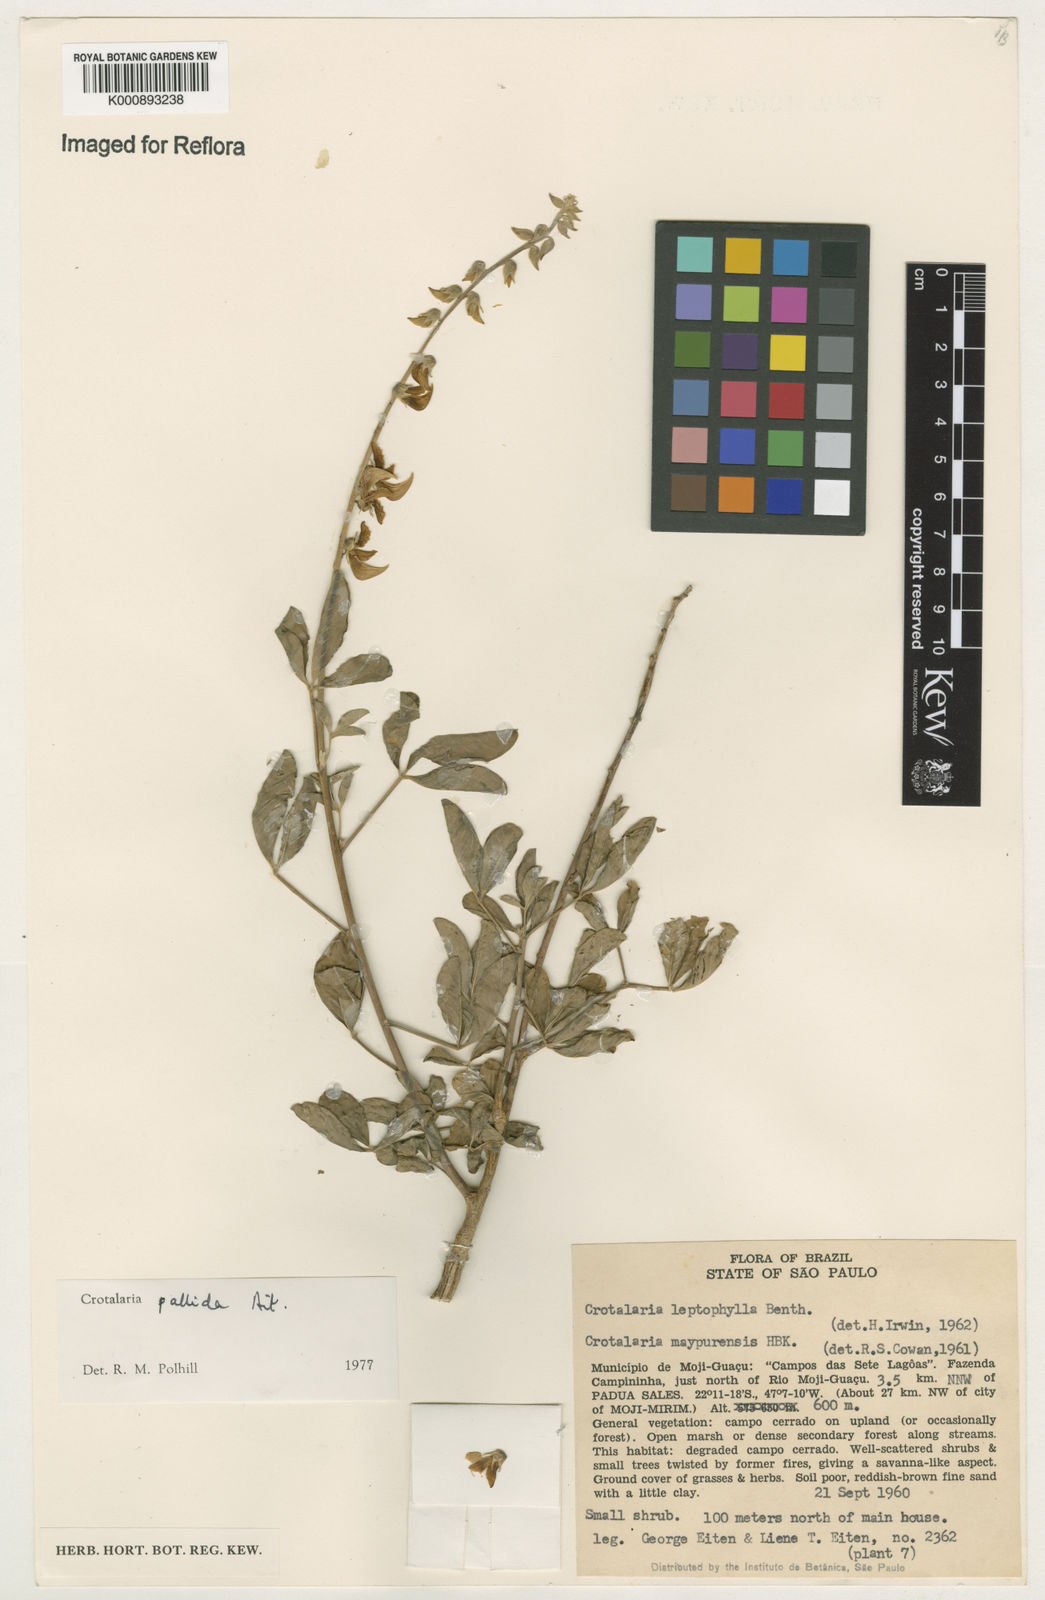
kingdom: Plantae
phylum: Tracheophyta
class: Magnoliopsida
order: Fabales
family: Fabaceae
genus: Crotalaria
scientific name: Crotalaria pallida
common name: Smooth rattlebox
